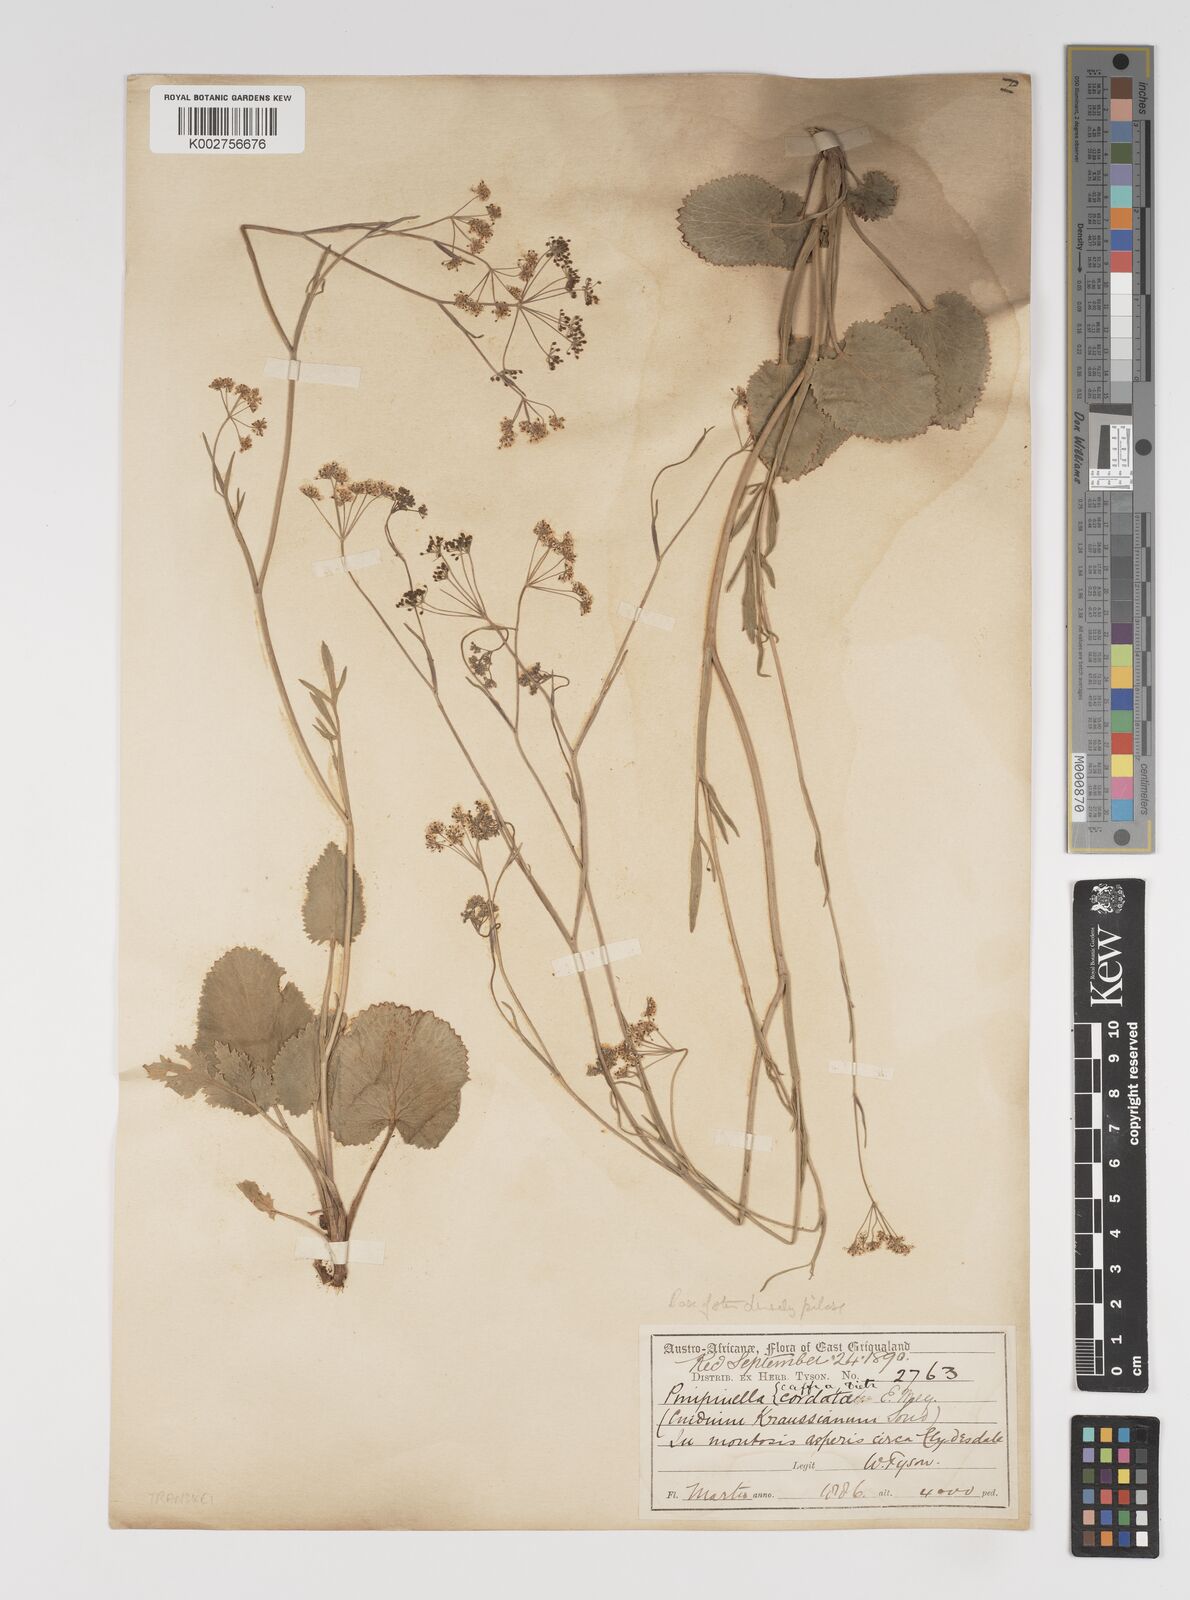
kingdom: Plantae
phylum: Tracheophyta
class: Magnoliopsida
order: Apiales
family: Apiaceae
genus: Pimpinella
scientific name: Pimpinella
